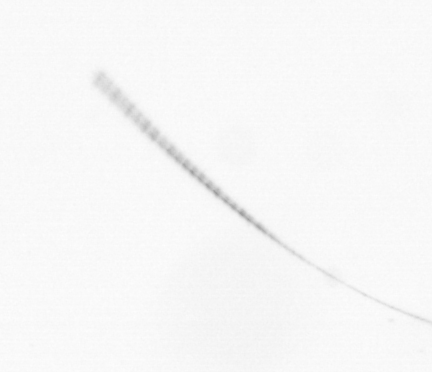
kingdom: Chromista
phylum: Ochrophyta
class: Bacillariophyceae
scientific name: Bacillariophyceae
